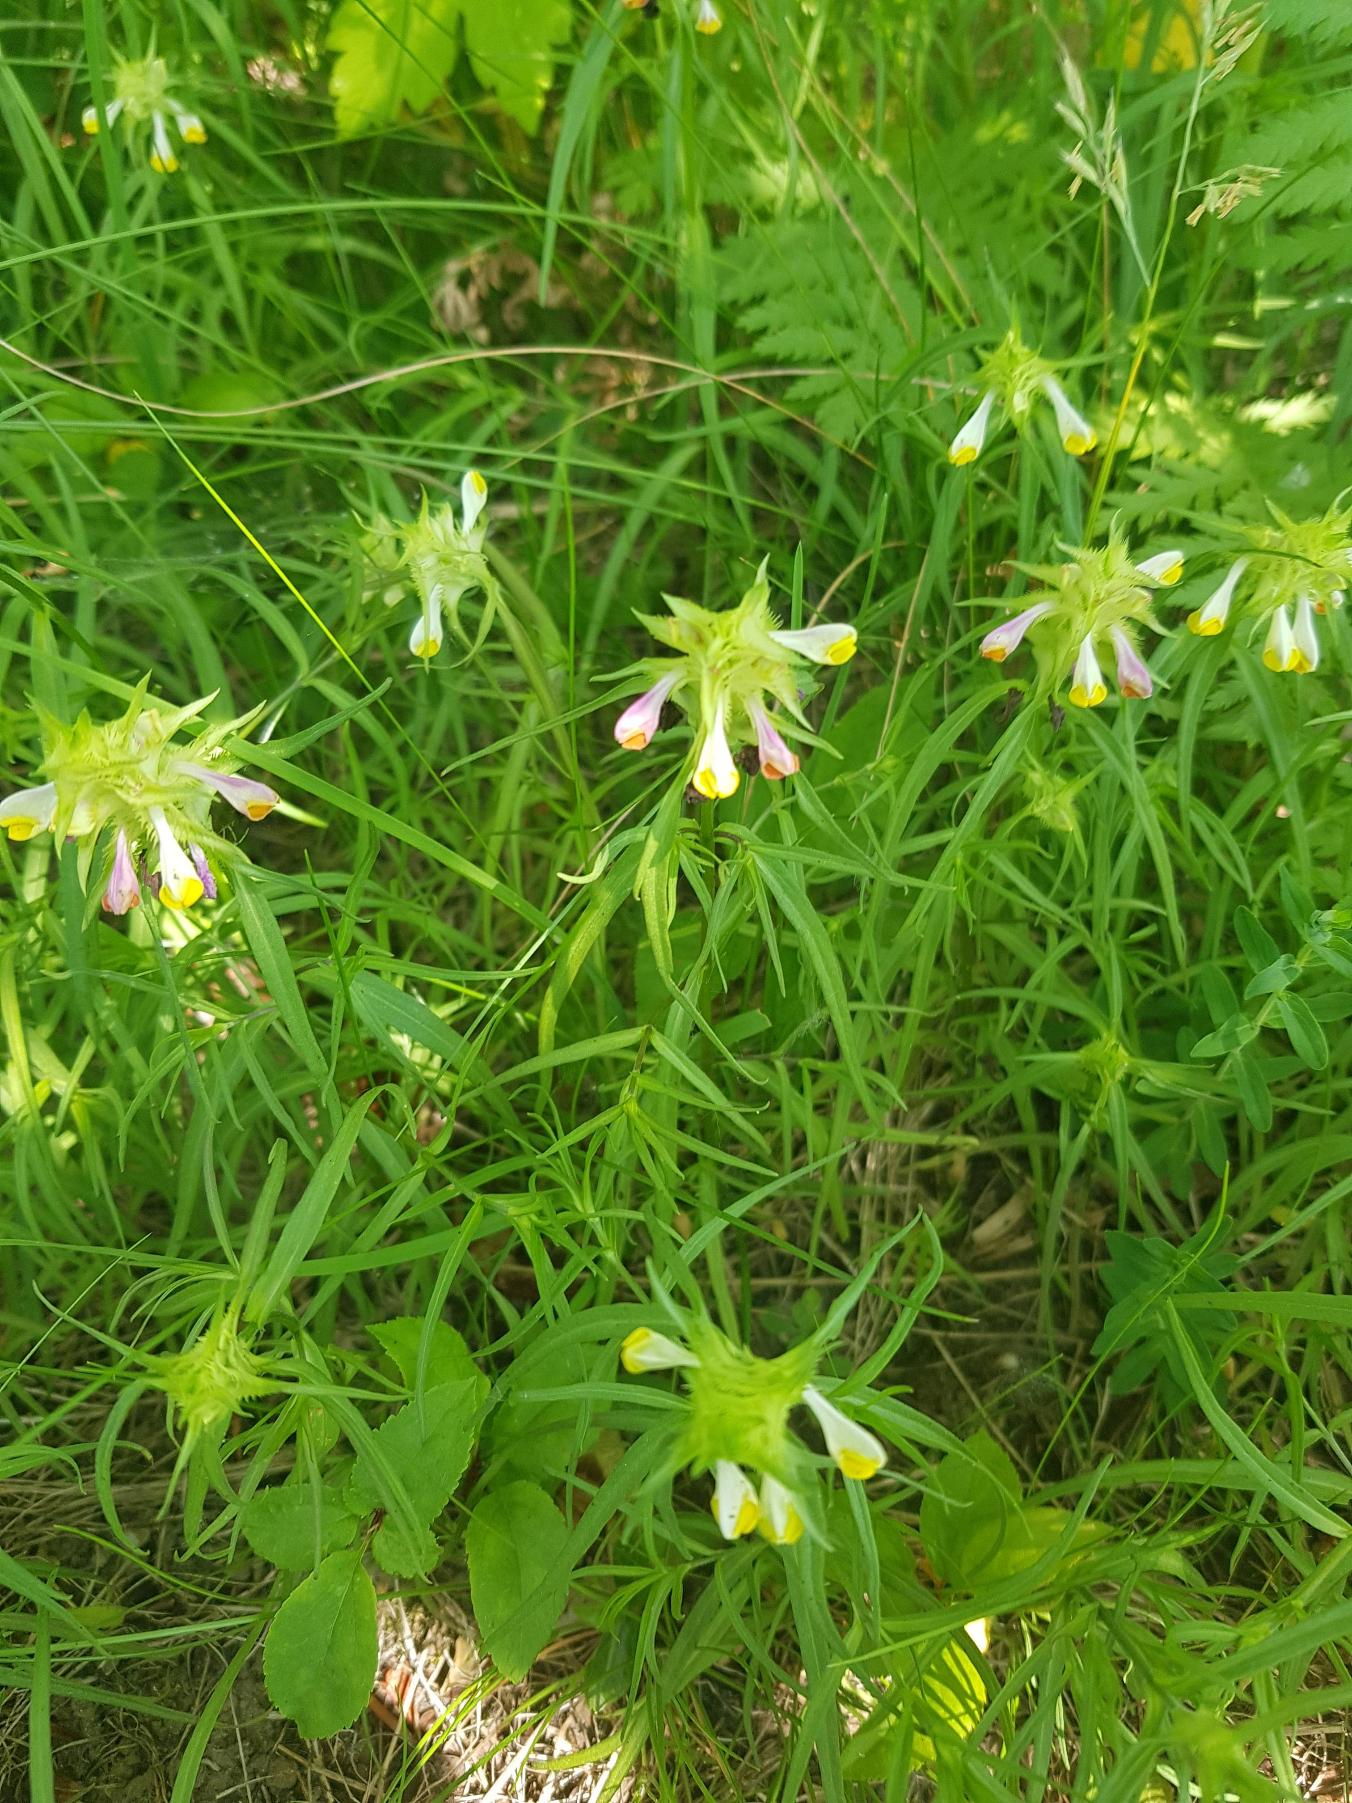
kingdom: Plantae
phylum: Tracheophyta
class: Magnoliopsida
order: Lamiales
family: Orobanchaceae
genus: Melampyrum
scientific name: Melampyrum cristatum
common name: Kantet kohvede
